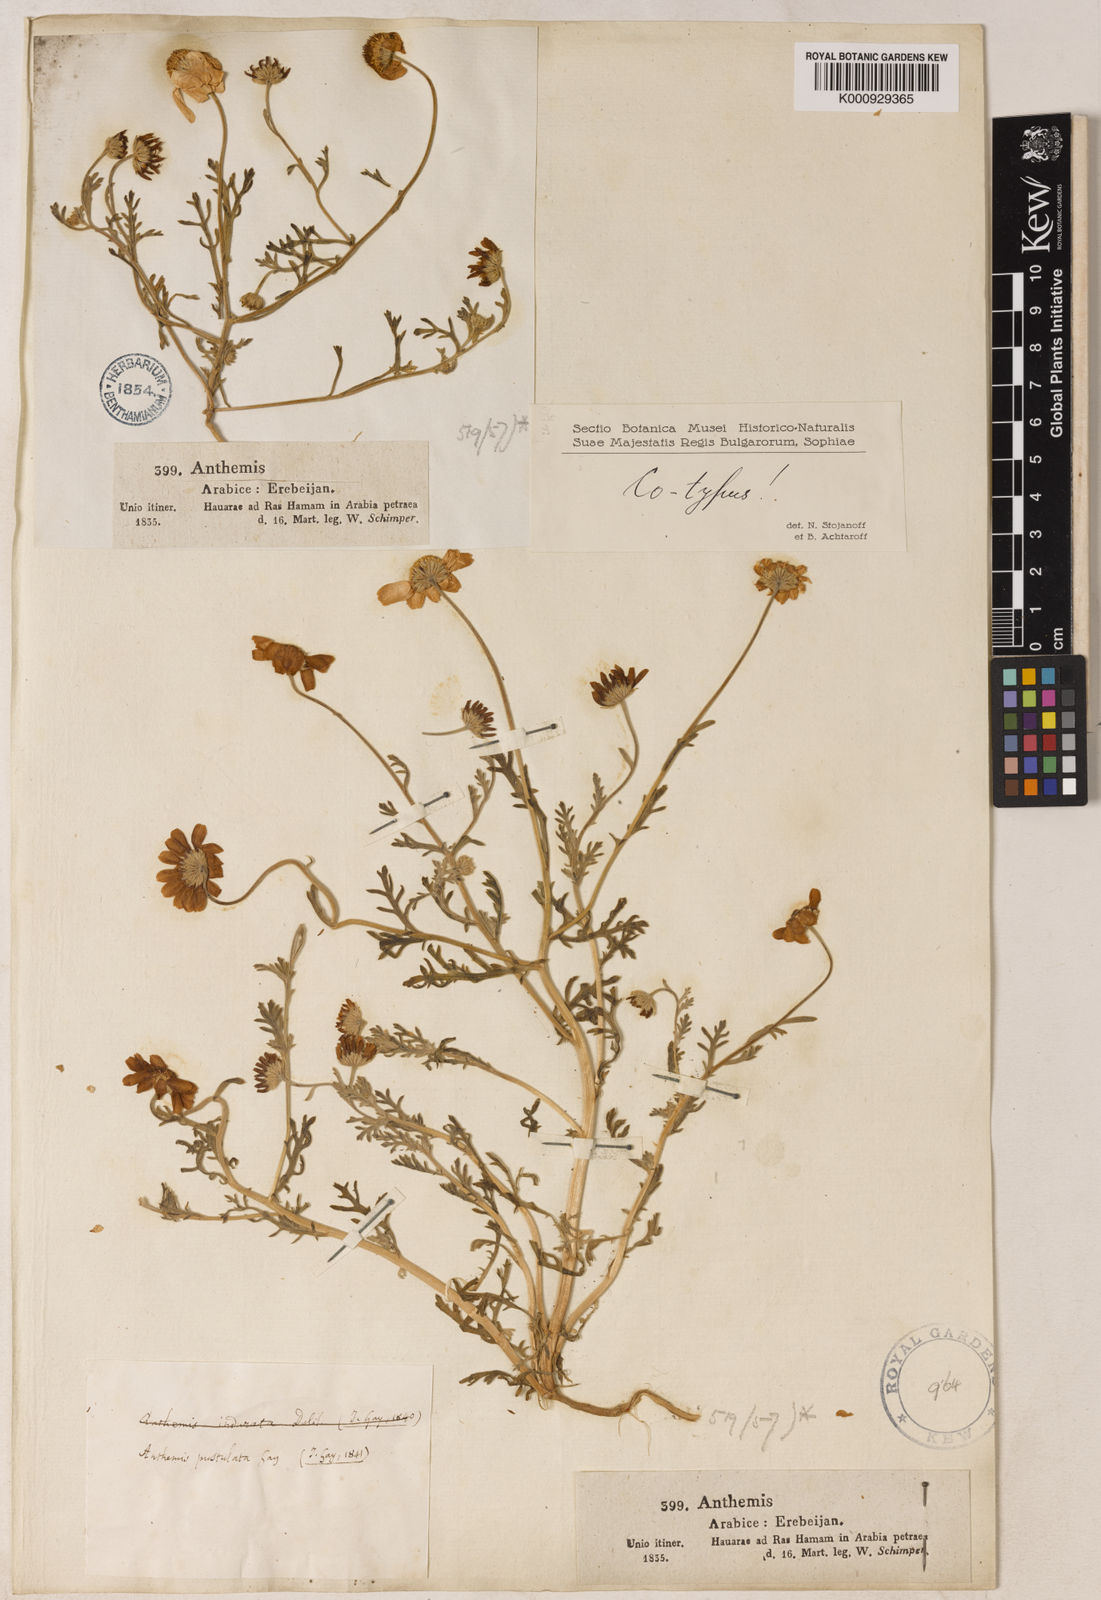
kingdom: Plantae
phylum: Tracheophyta
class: Magnoliopsida
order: Asterales
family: Asteraceae
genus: Anthemis
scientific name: Anthemis melampodina
